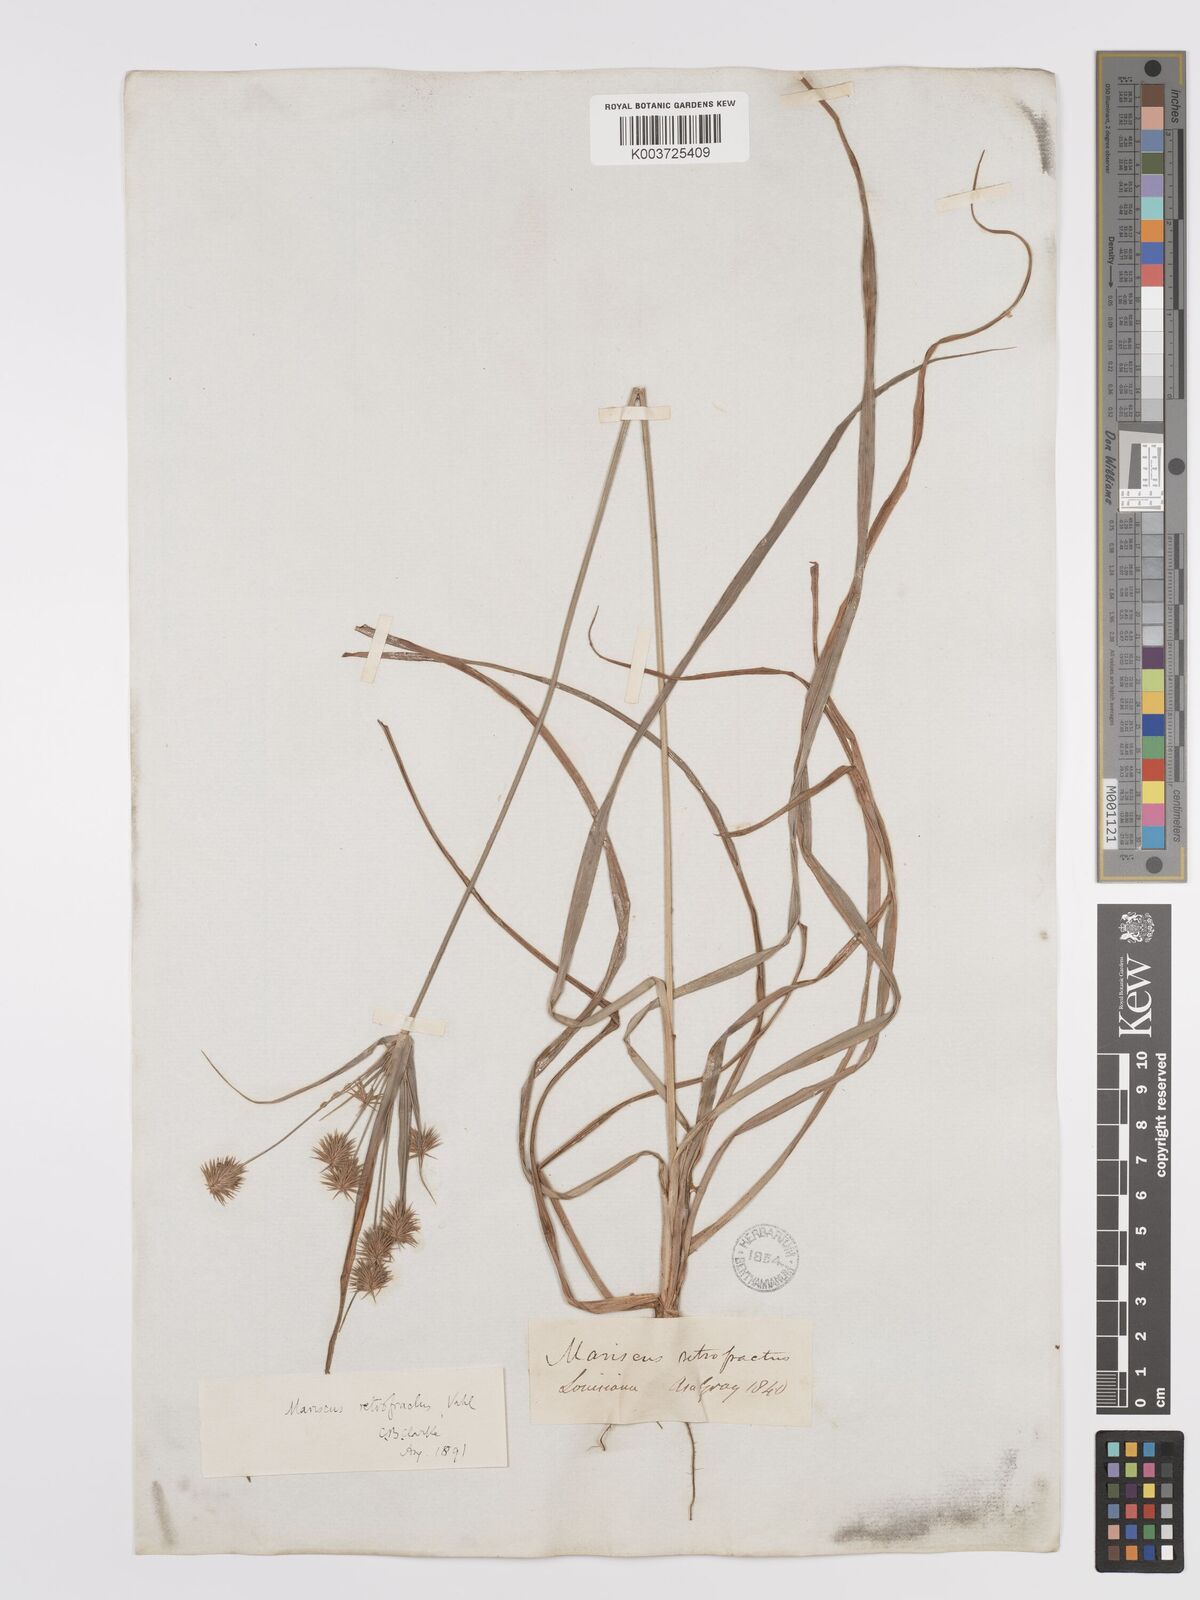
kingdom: Plantae
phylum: Tracheophyta
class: Liliopsida
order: Poales
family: Cyperaceae
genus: Cyperus
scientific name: Cyperus retrofractus
